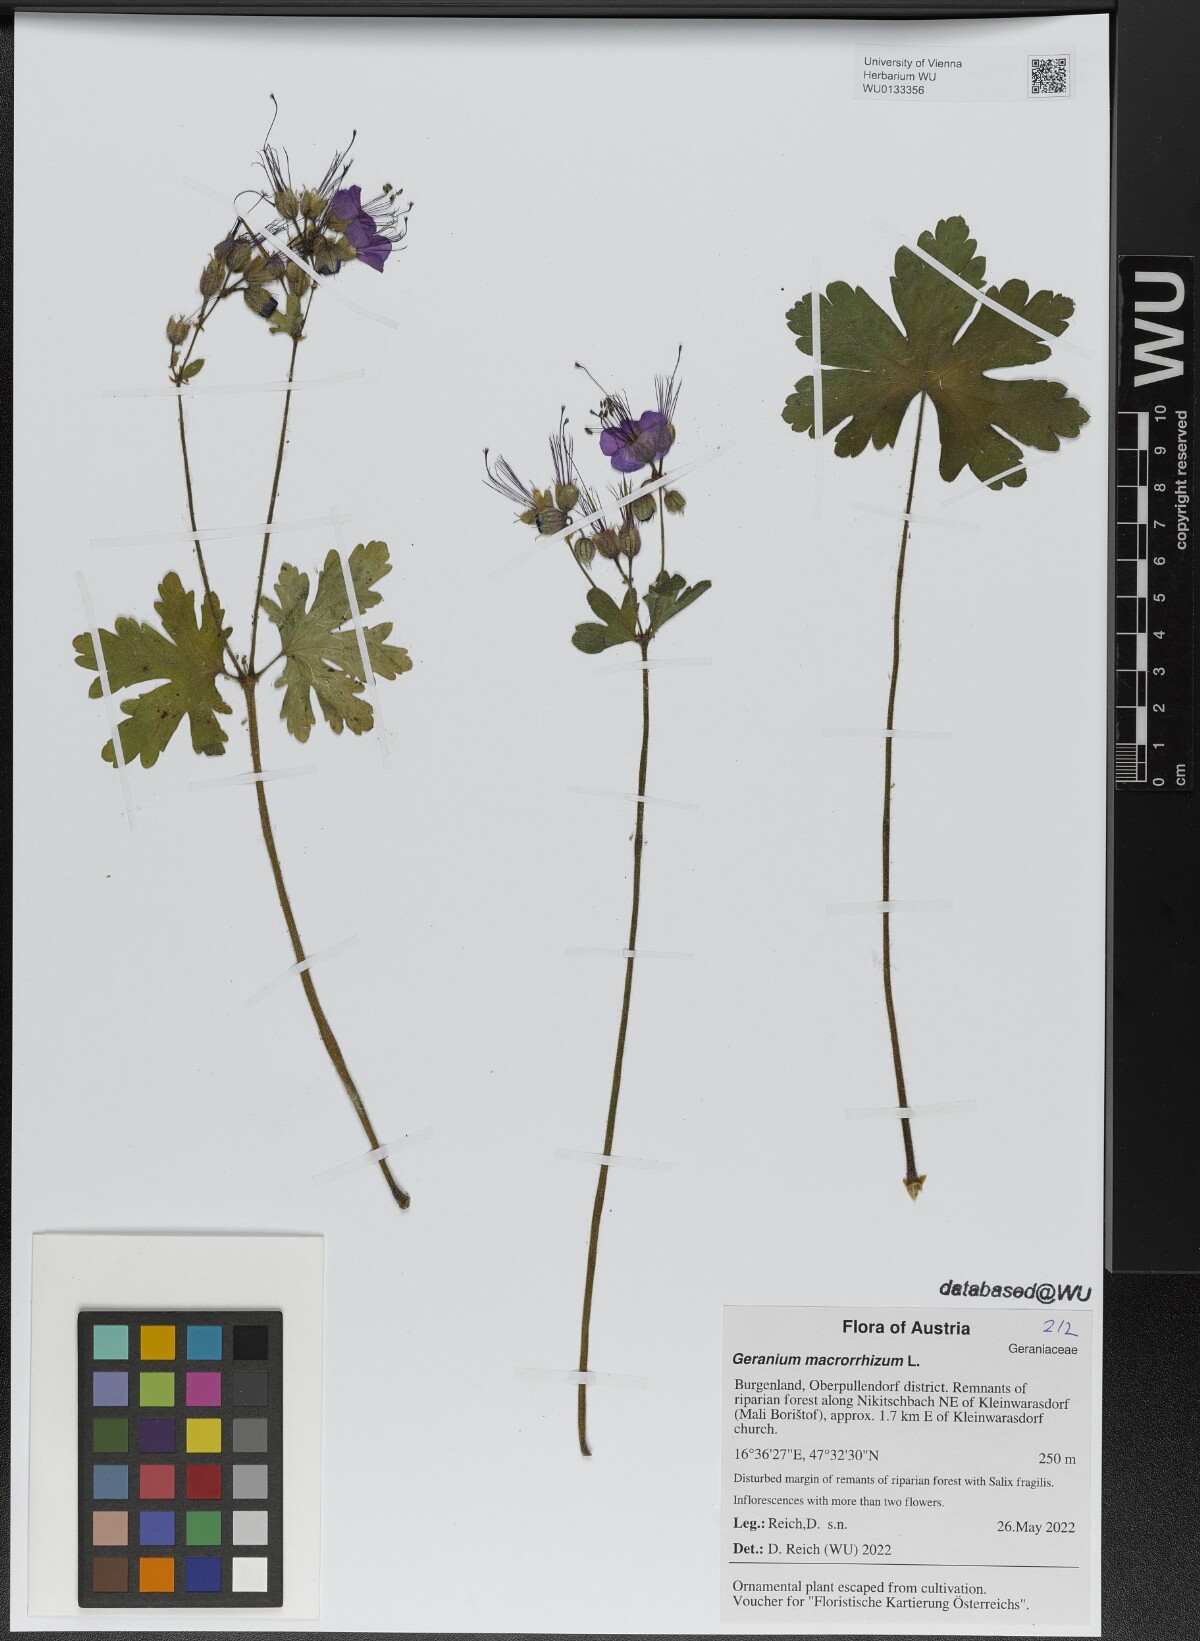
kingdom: Plantae
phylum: Tracheophyta
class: Magnoliopsida
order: Geraniales
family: Geraniaceae
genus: Geranium
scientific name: Geranium macrorrhizum
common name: Rock crane's-bill
